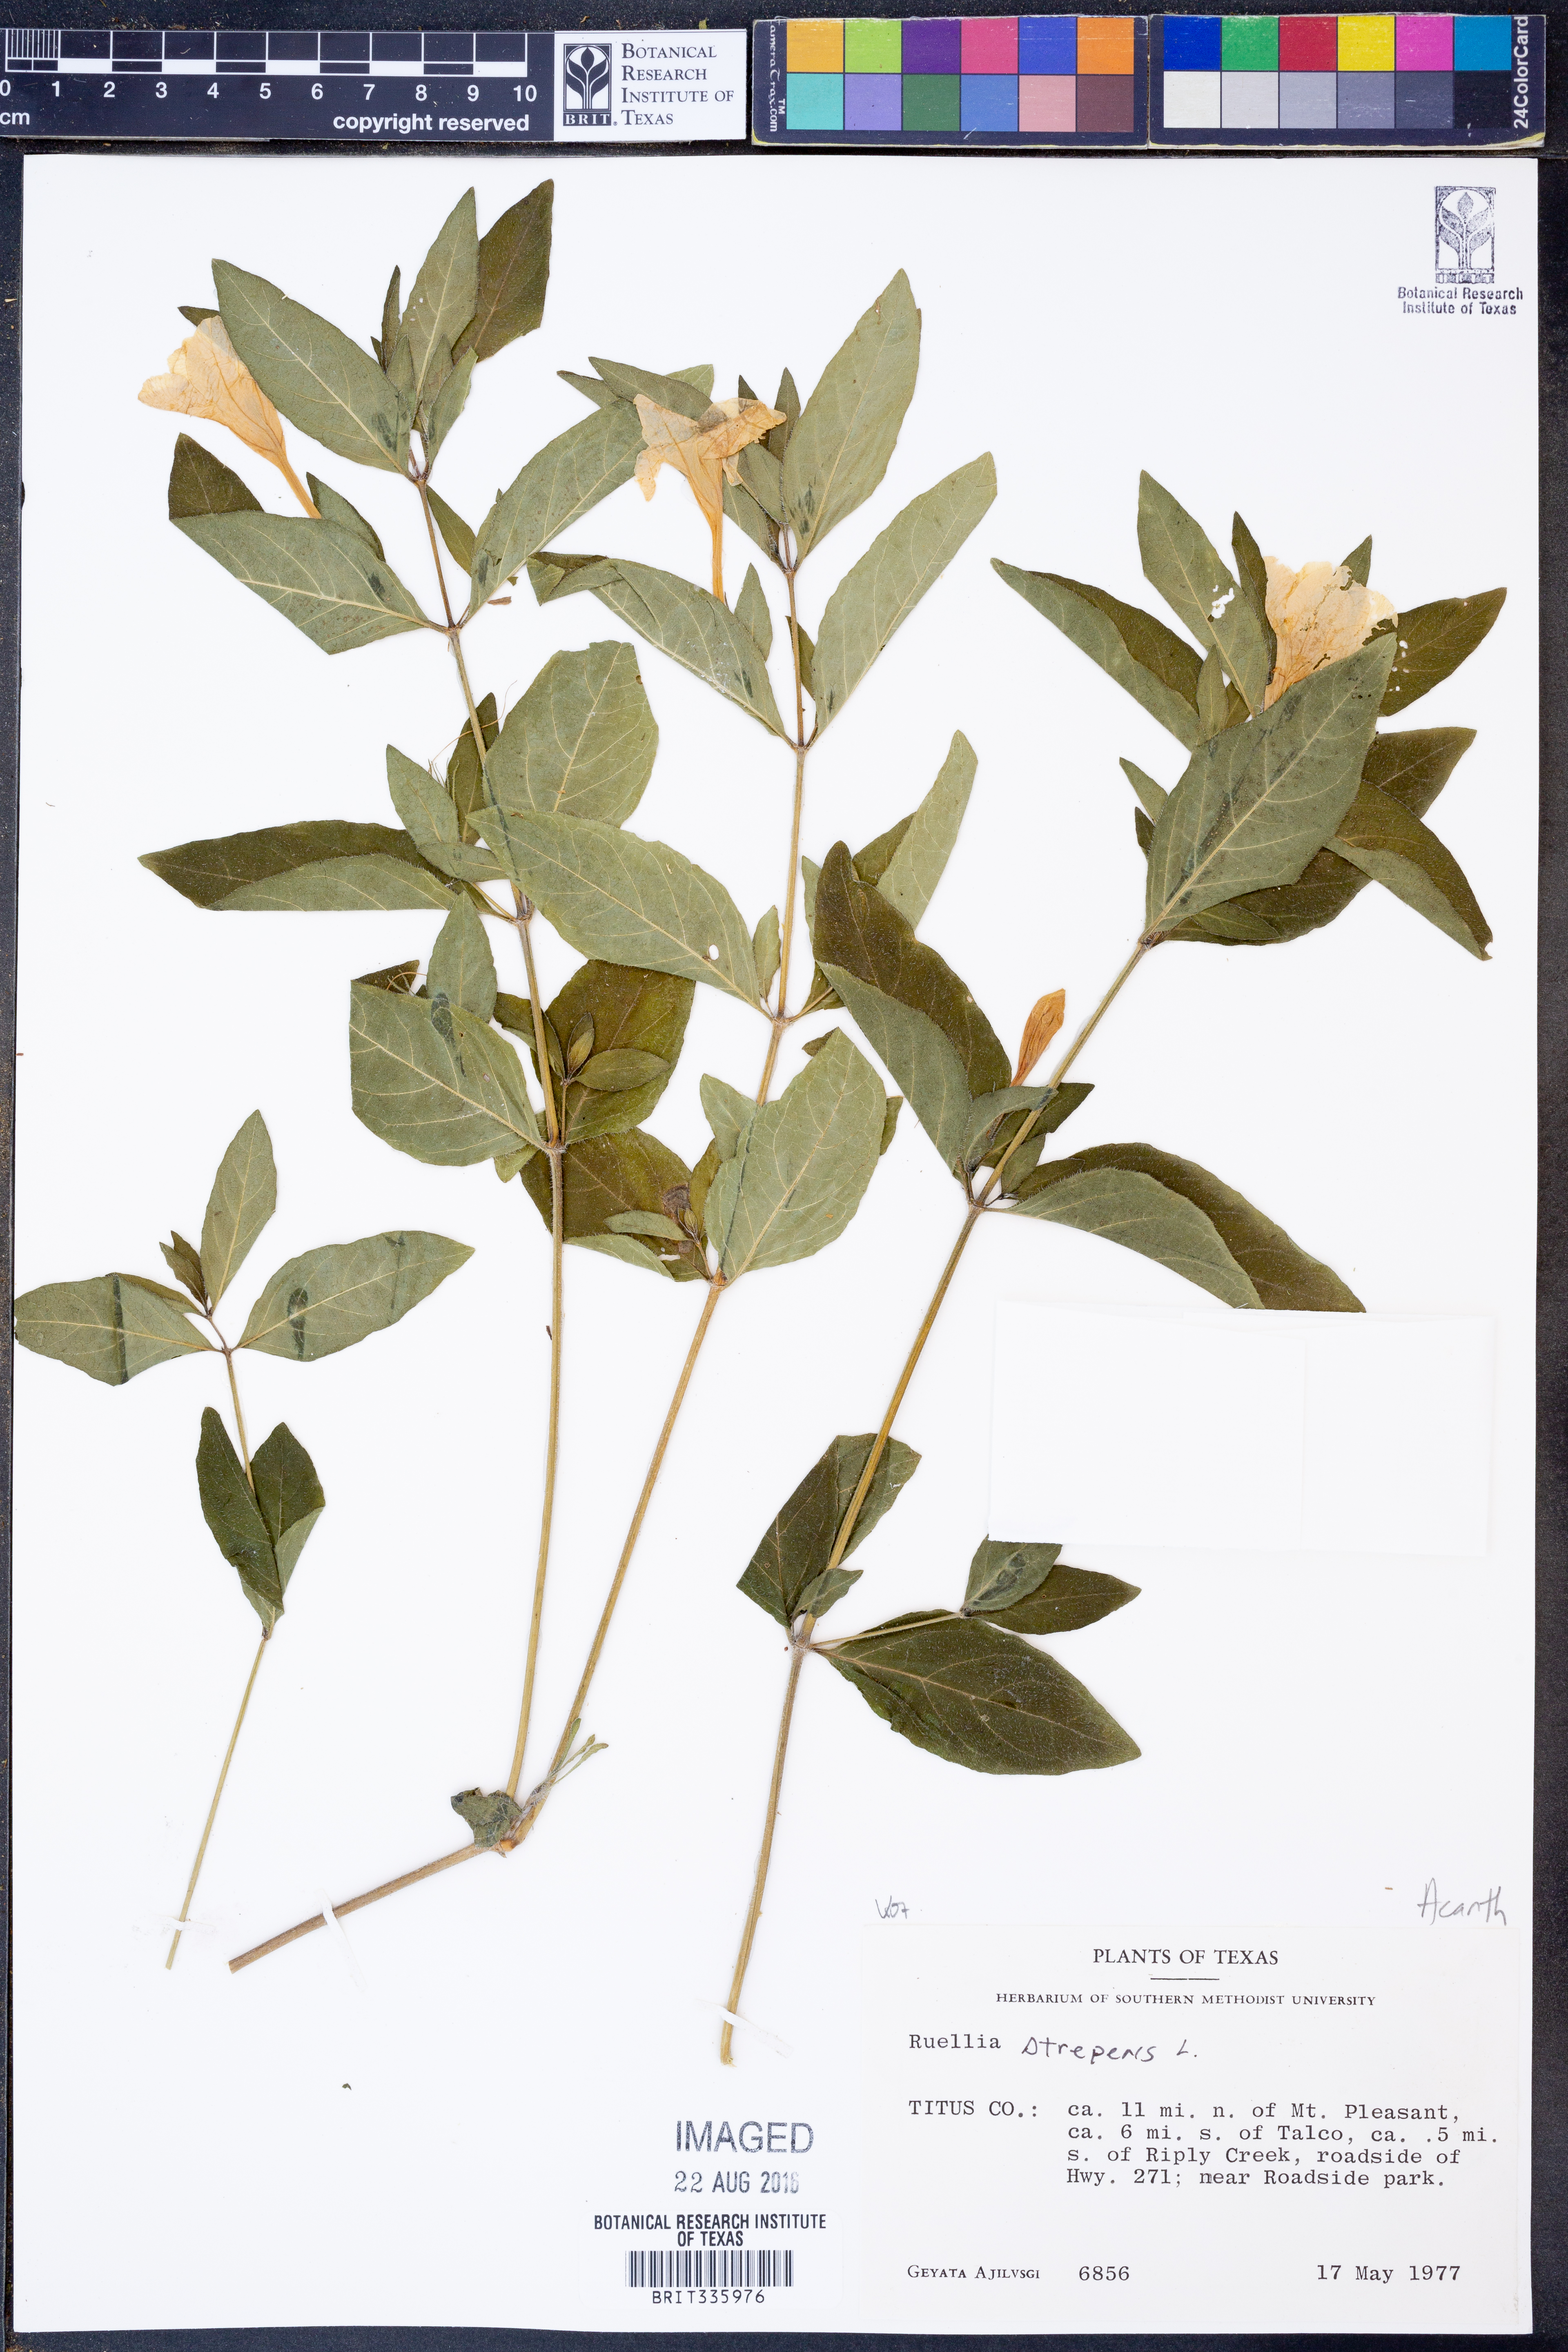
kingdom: Plantae
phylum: Tracheophyta
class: Magnoliopsida
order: Lamiales
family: Acanthaceae
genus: Ruellia
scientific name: Ruellia strepens
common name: Limestone wild petunia
